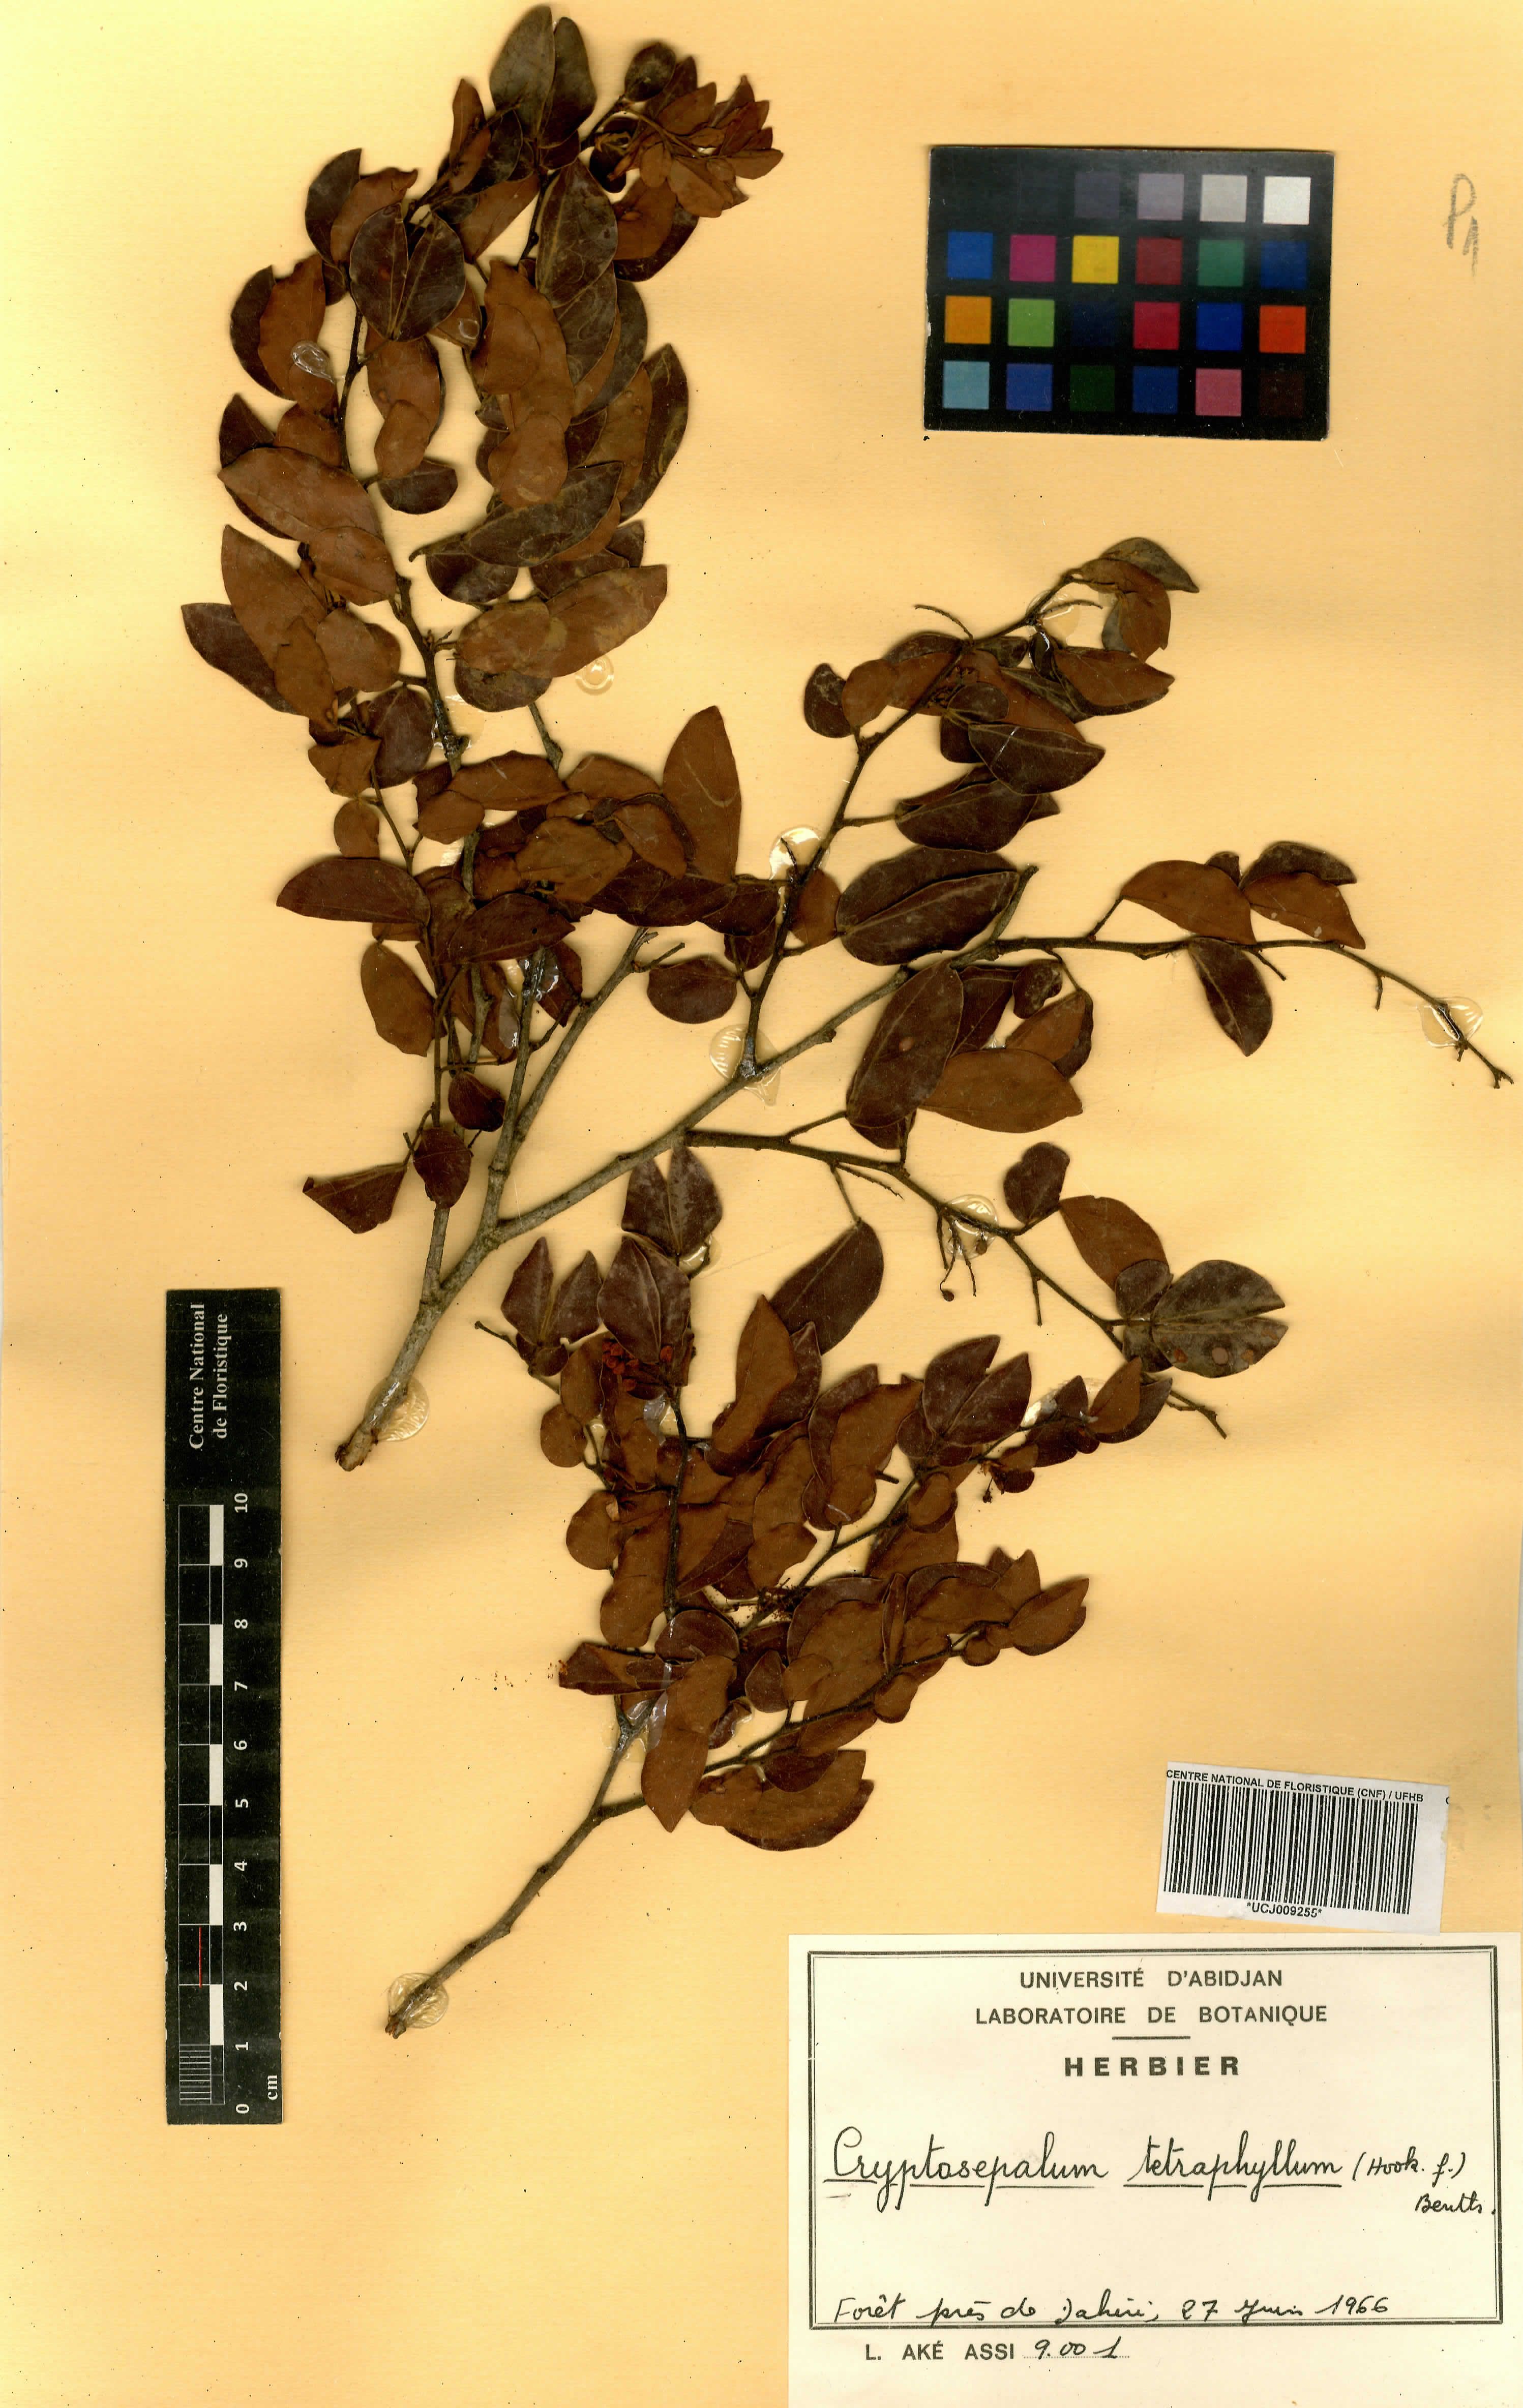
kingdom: Plantae
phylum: Tracheophyta
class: Magnoliopsida
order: Fabales
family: Fabaceae
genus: Cryptosepalum
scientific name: Cryptosepalum tetraphyllum
